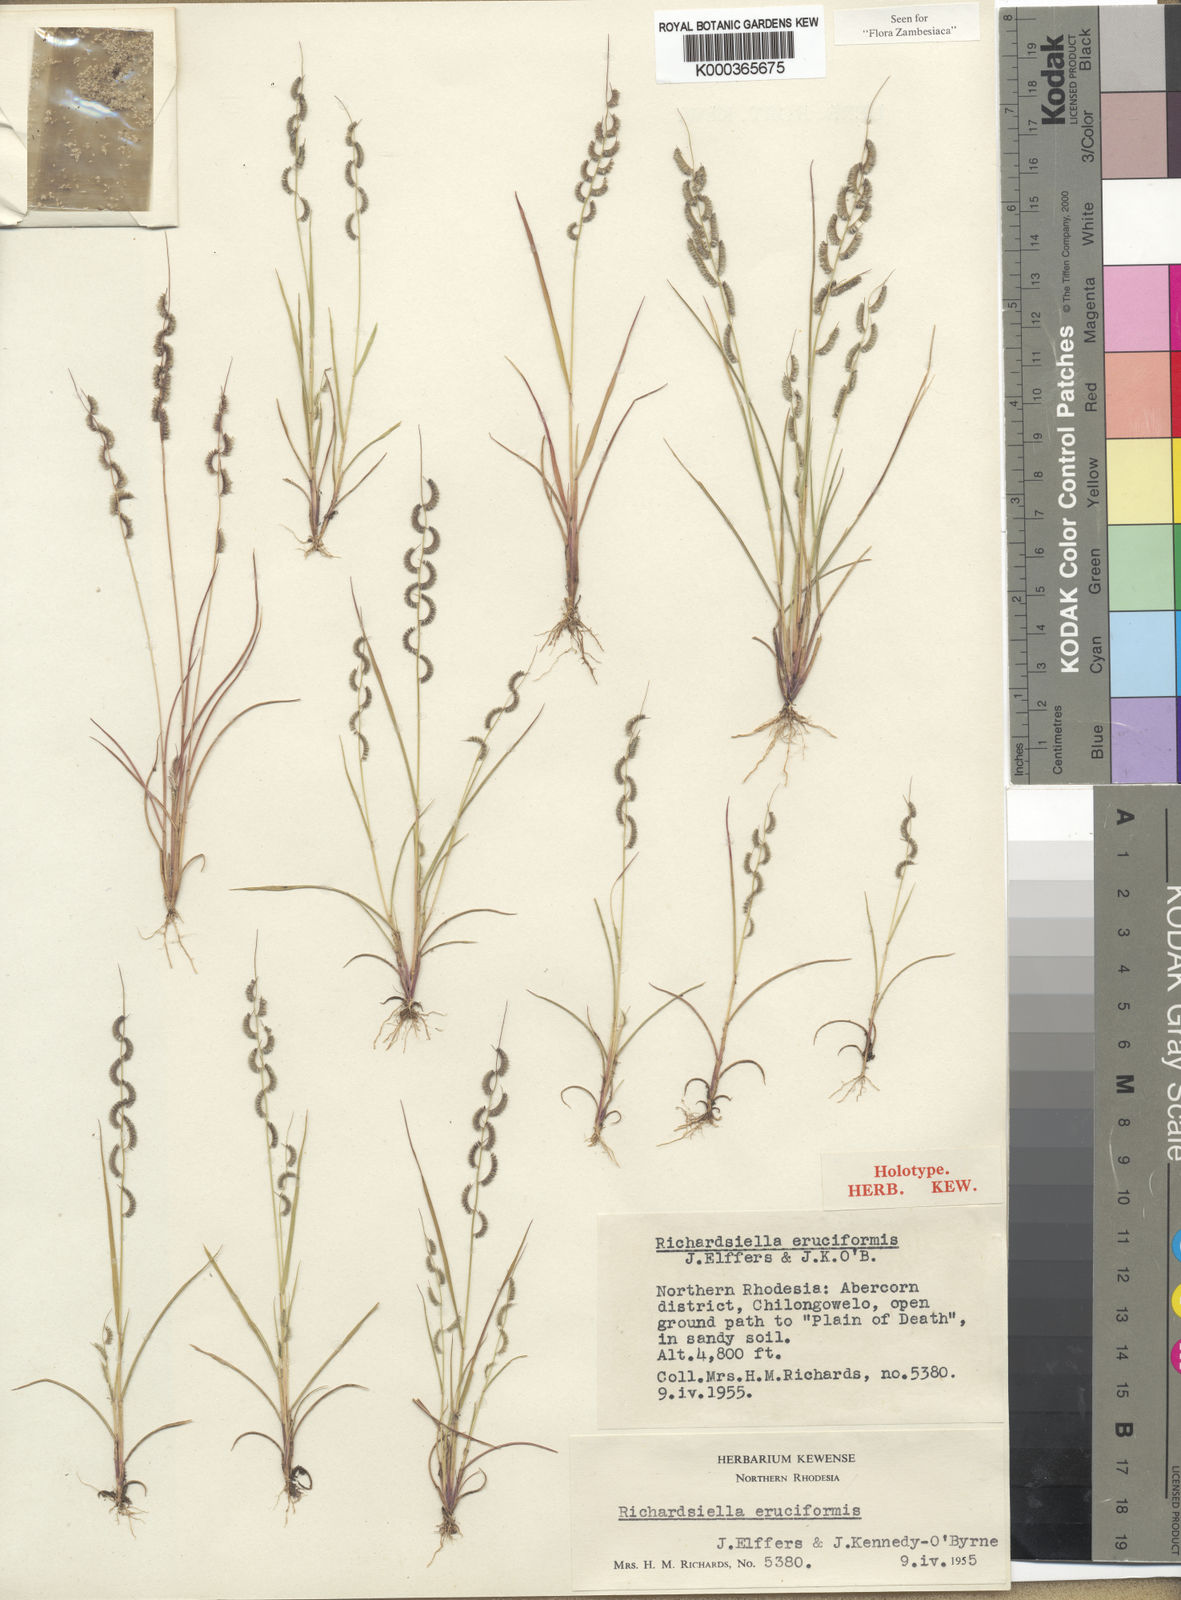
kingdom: Plantae
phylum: Tracheophyta
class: Liliopsida
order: Poales
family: Poaceae
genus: Richardsiella
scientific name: Richardsiella eruciformis
